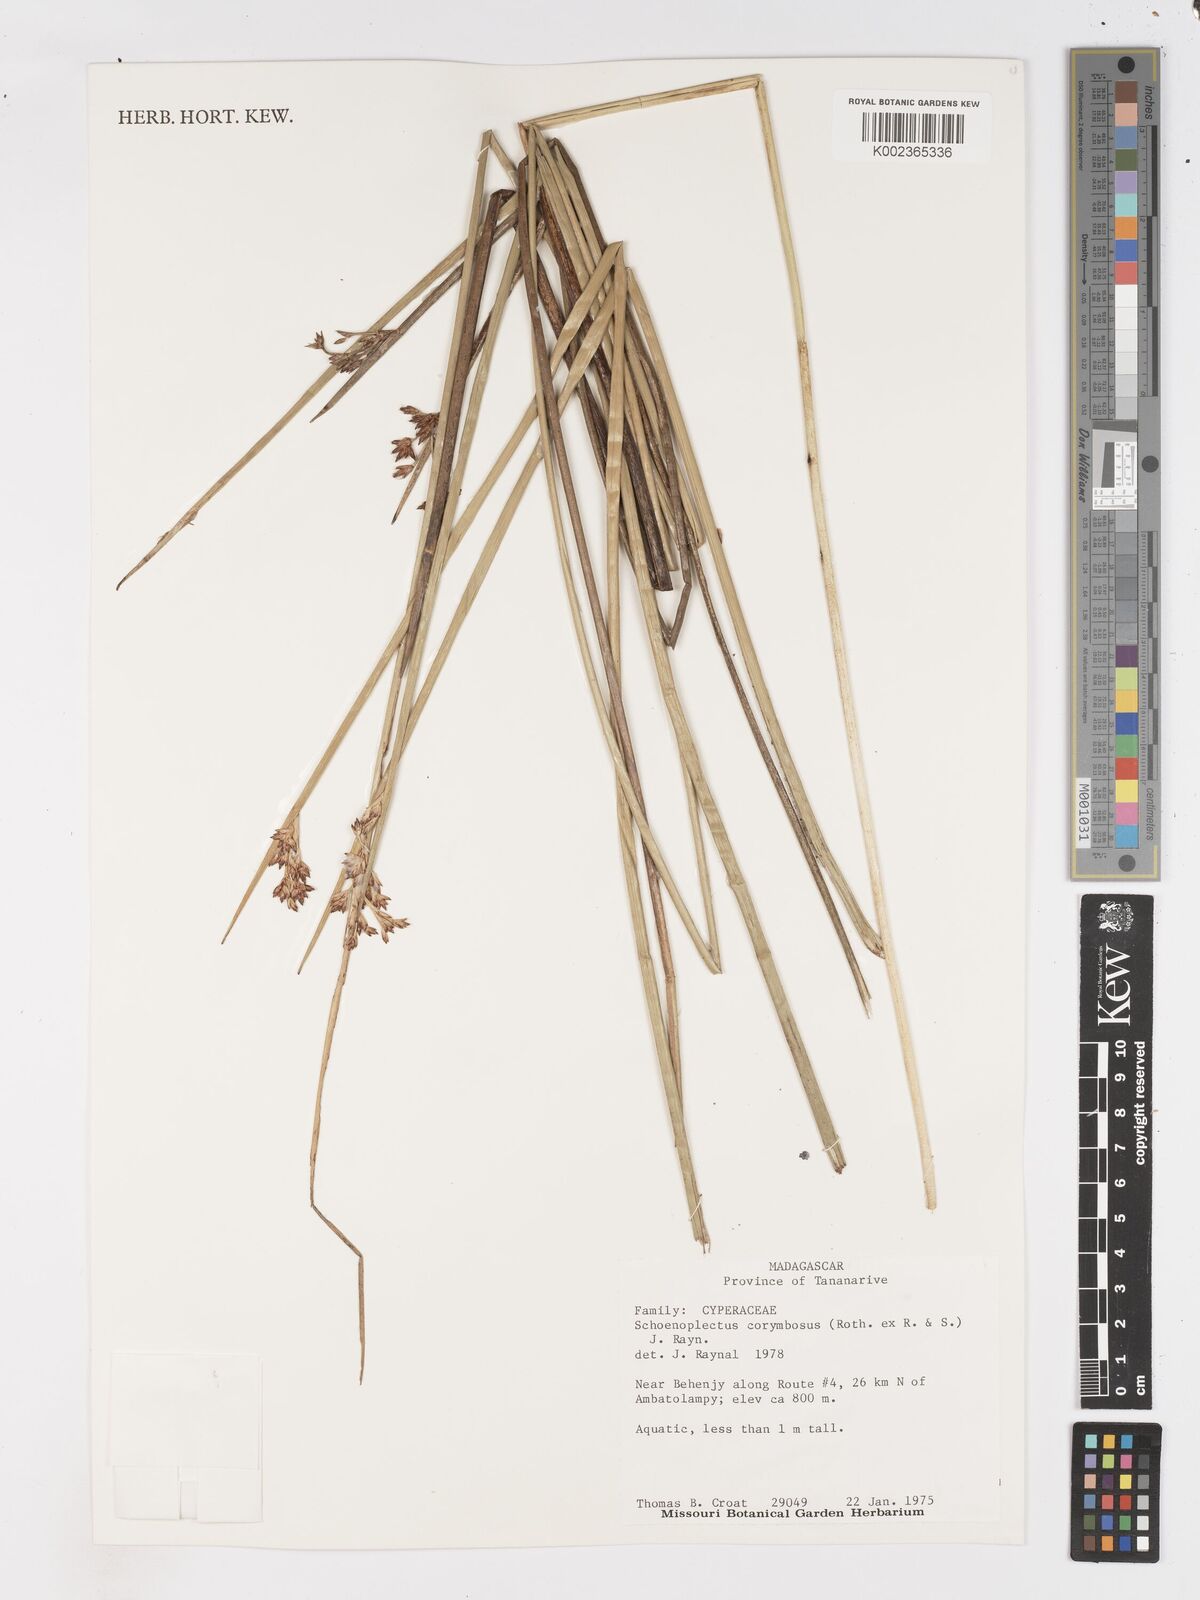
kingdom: Plantae
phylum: Tracheophyta
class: Liliopsida
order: Poales
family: Cyperaceae
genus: Schoenoplectiella
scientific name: Schoenoplectiella corymbosa
